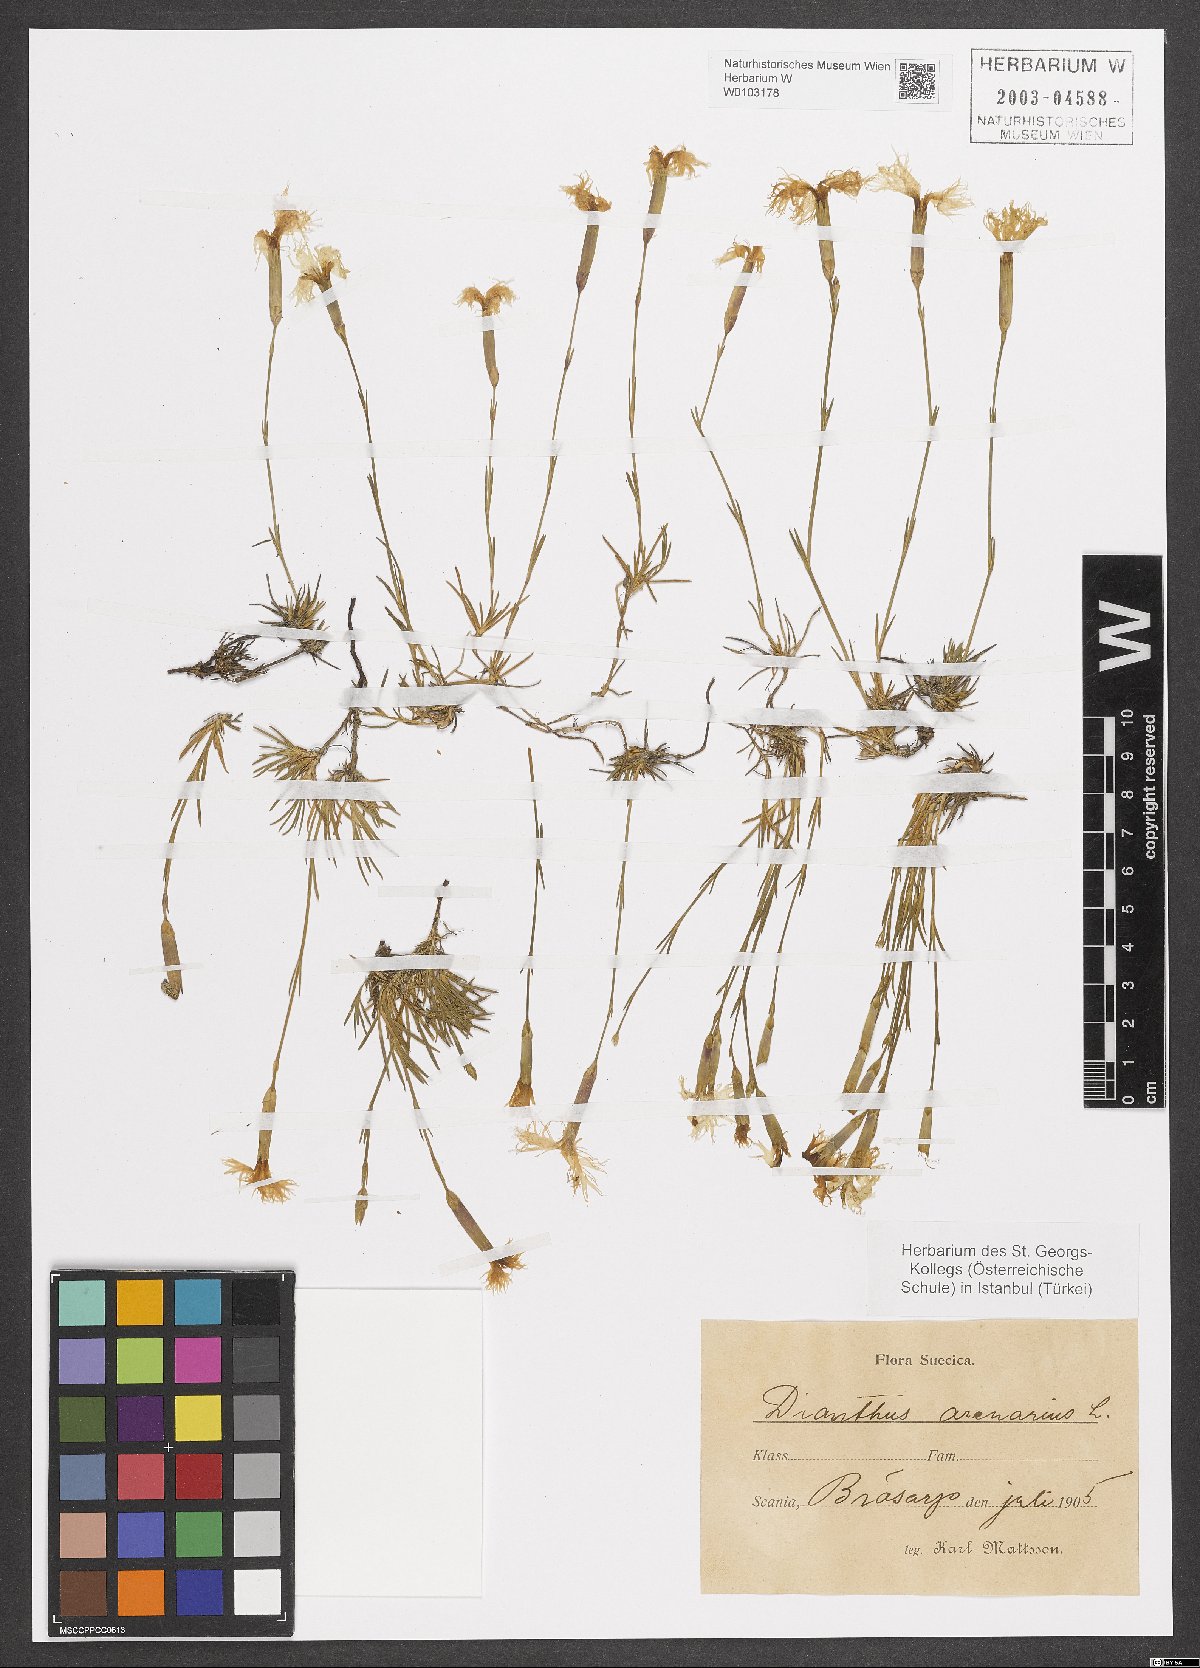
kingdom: Plantae
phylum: Tracheophyta
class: Magnoliopsida
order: Caryophyllales
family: Caryophyllaceae
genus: Dianthus
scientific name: Dianthus arenarius
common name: Stone pink
